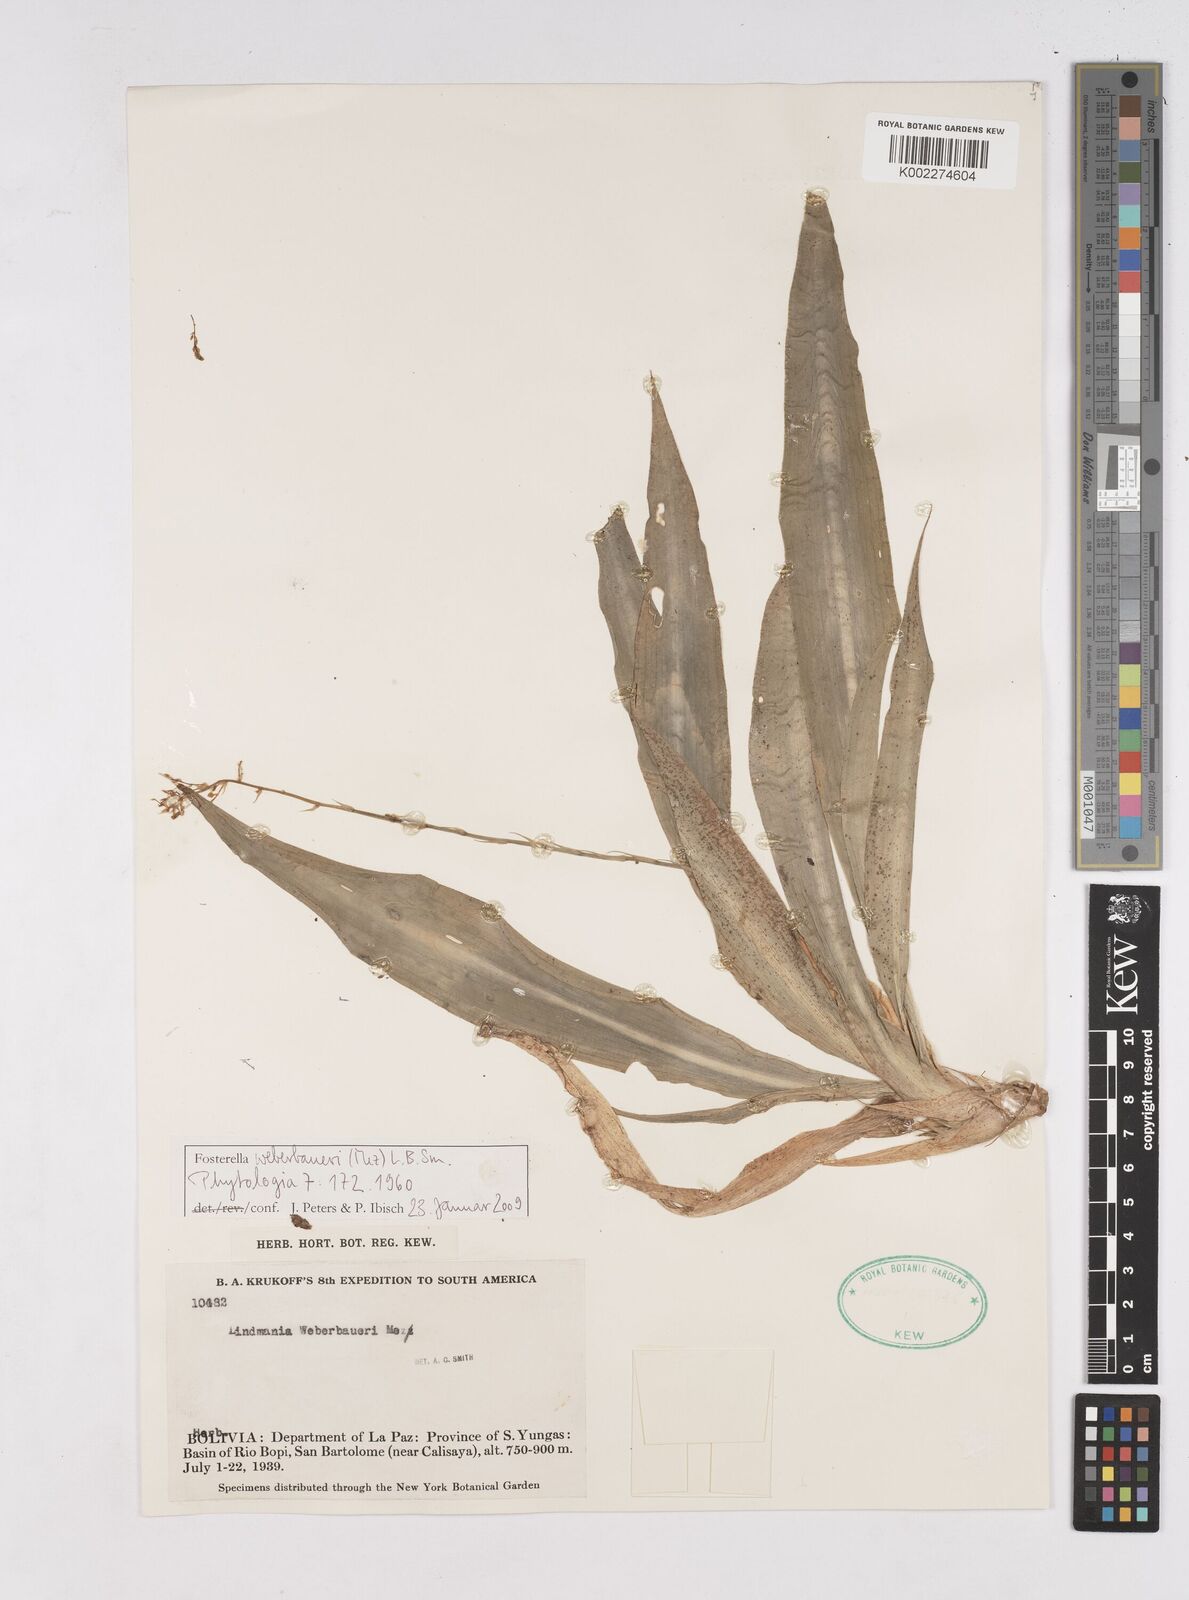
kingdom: Plantae
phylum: Tracheophyta
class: Liliopsida
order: Poales
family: Bromeliaceae
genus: Fosterella
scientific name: Fosterella schidosperma
